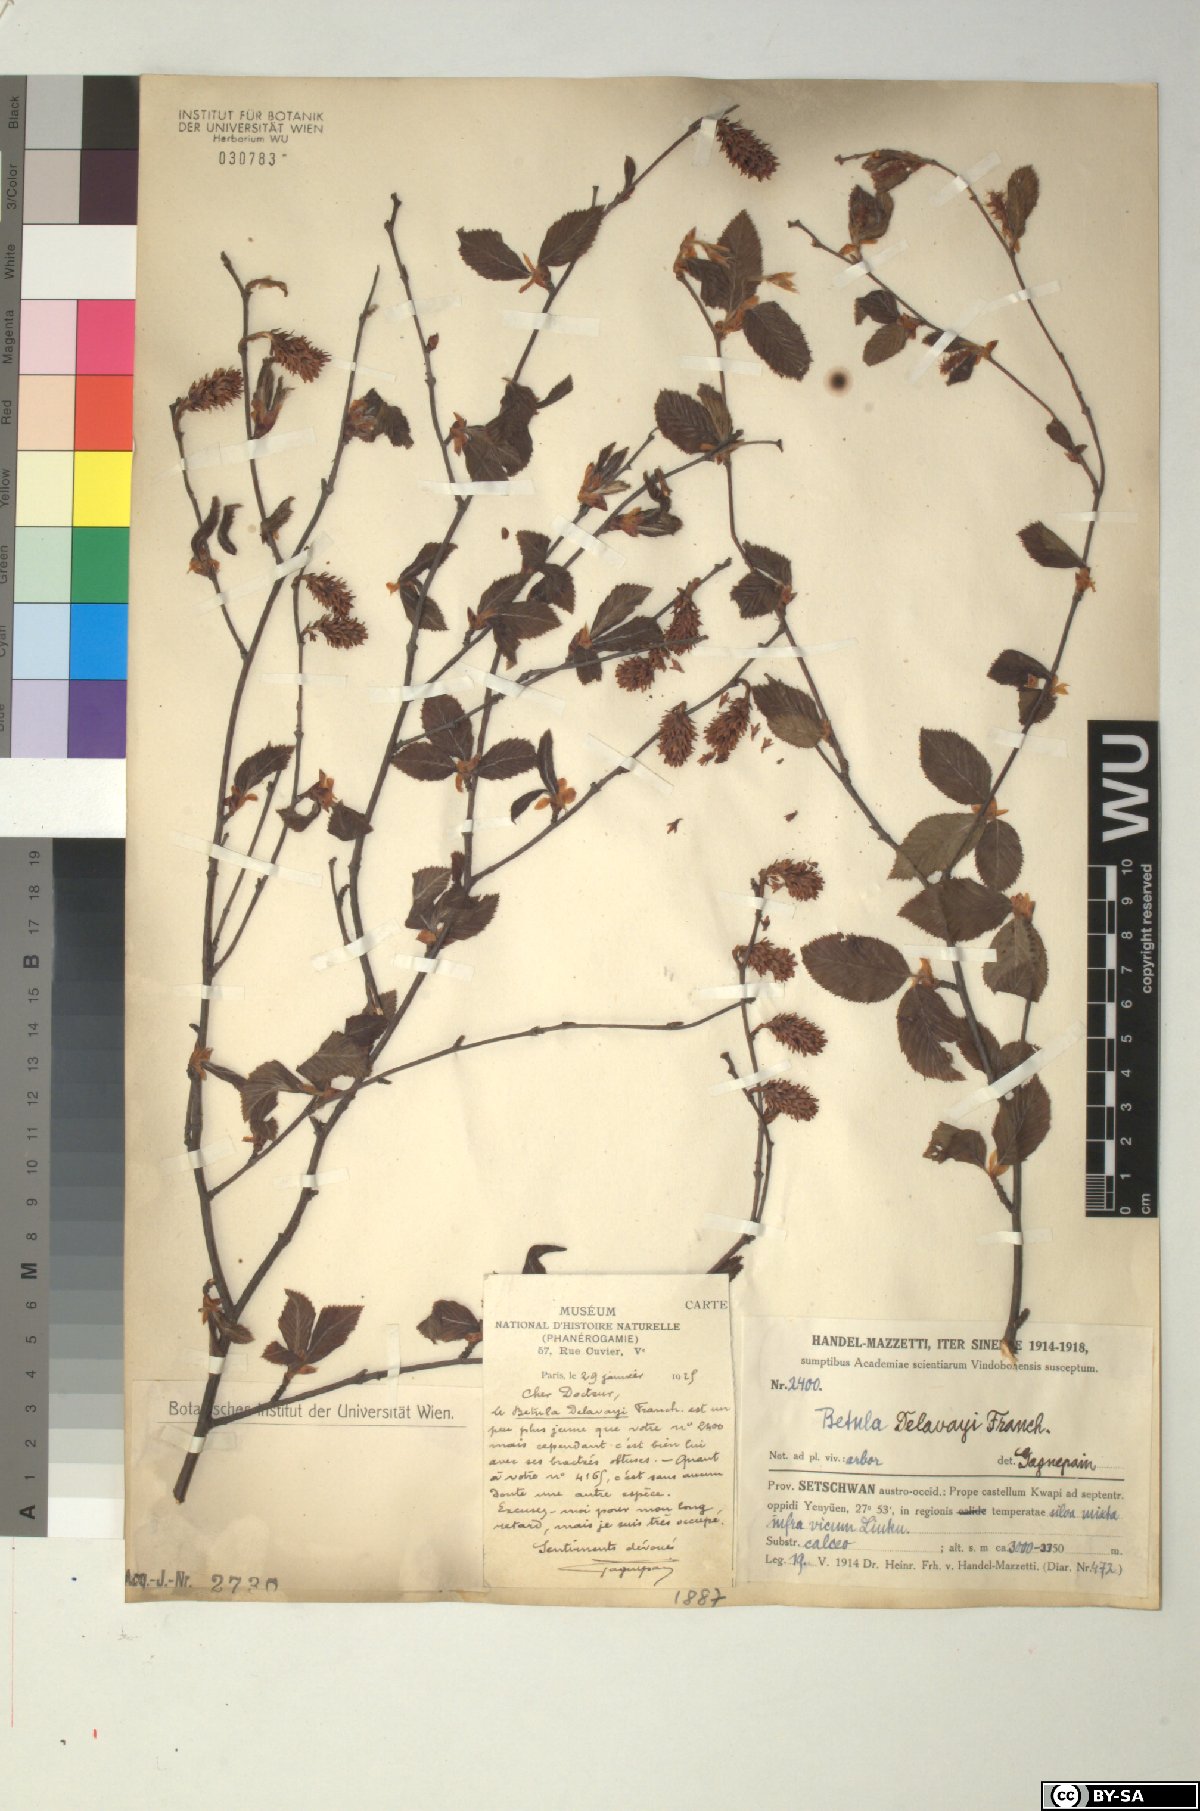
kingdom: Plantae
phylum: Tracheophyta
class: Magnoliopsida
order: Fagales
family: Betulaceae
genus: Betula
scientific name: Betula delavayi
